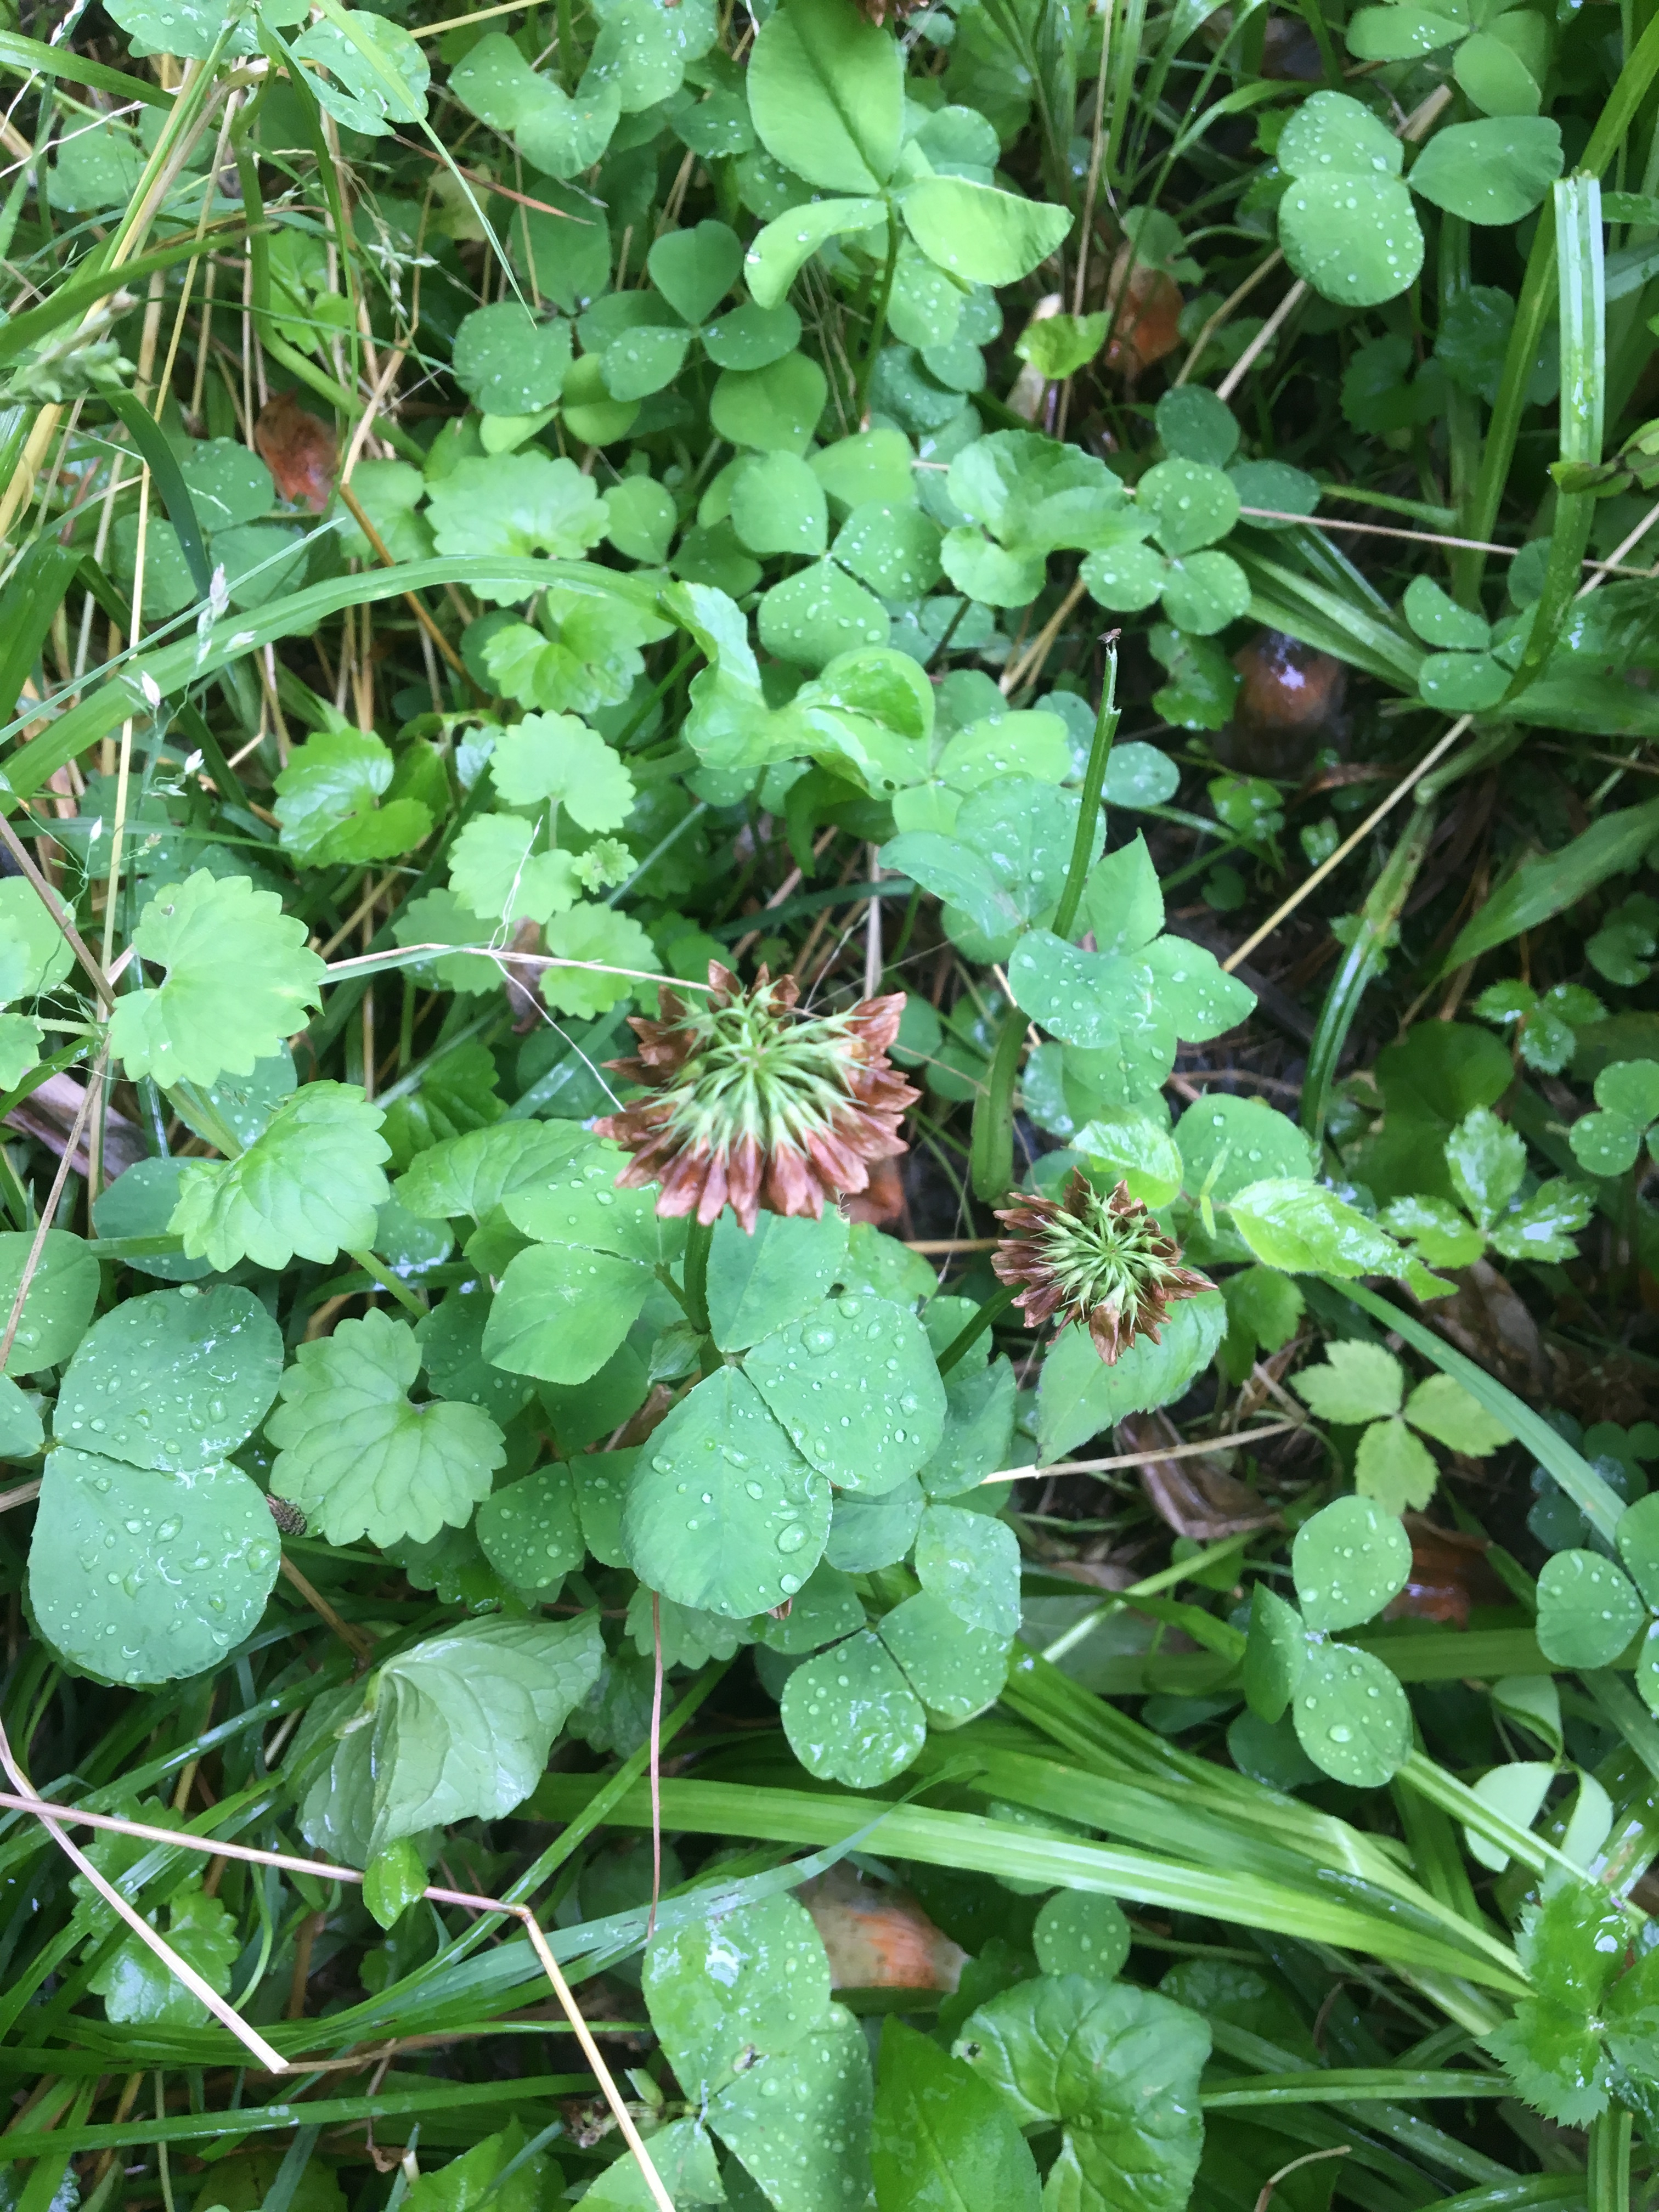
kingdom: Plantae
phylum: Tracheophyta
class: Magnoliopsida
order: Fabales
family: Fabaceae
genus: Trifolium
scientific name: Trifolium stoloniferum
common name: Running Buffalo Clover
